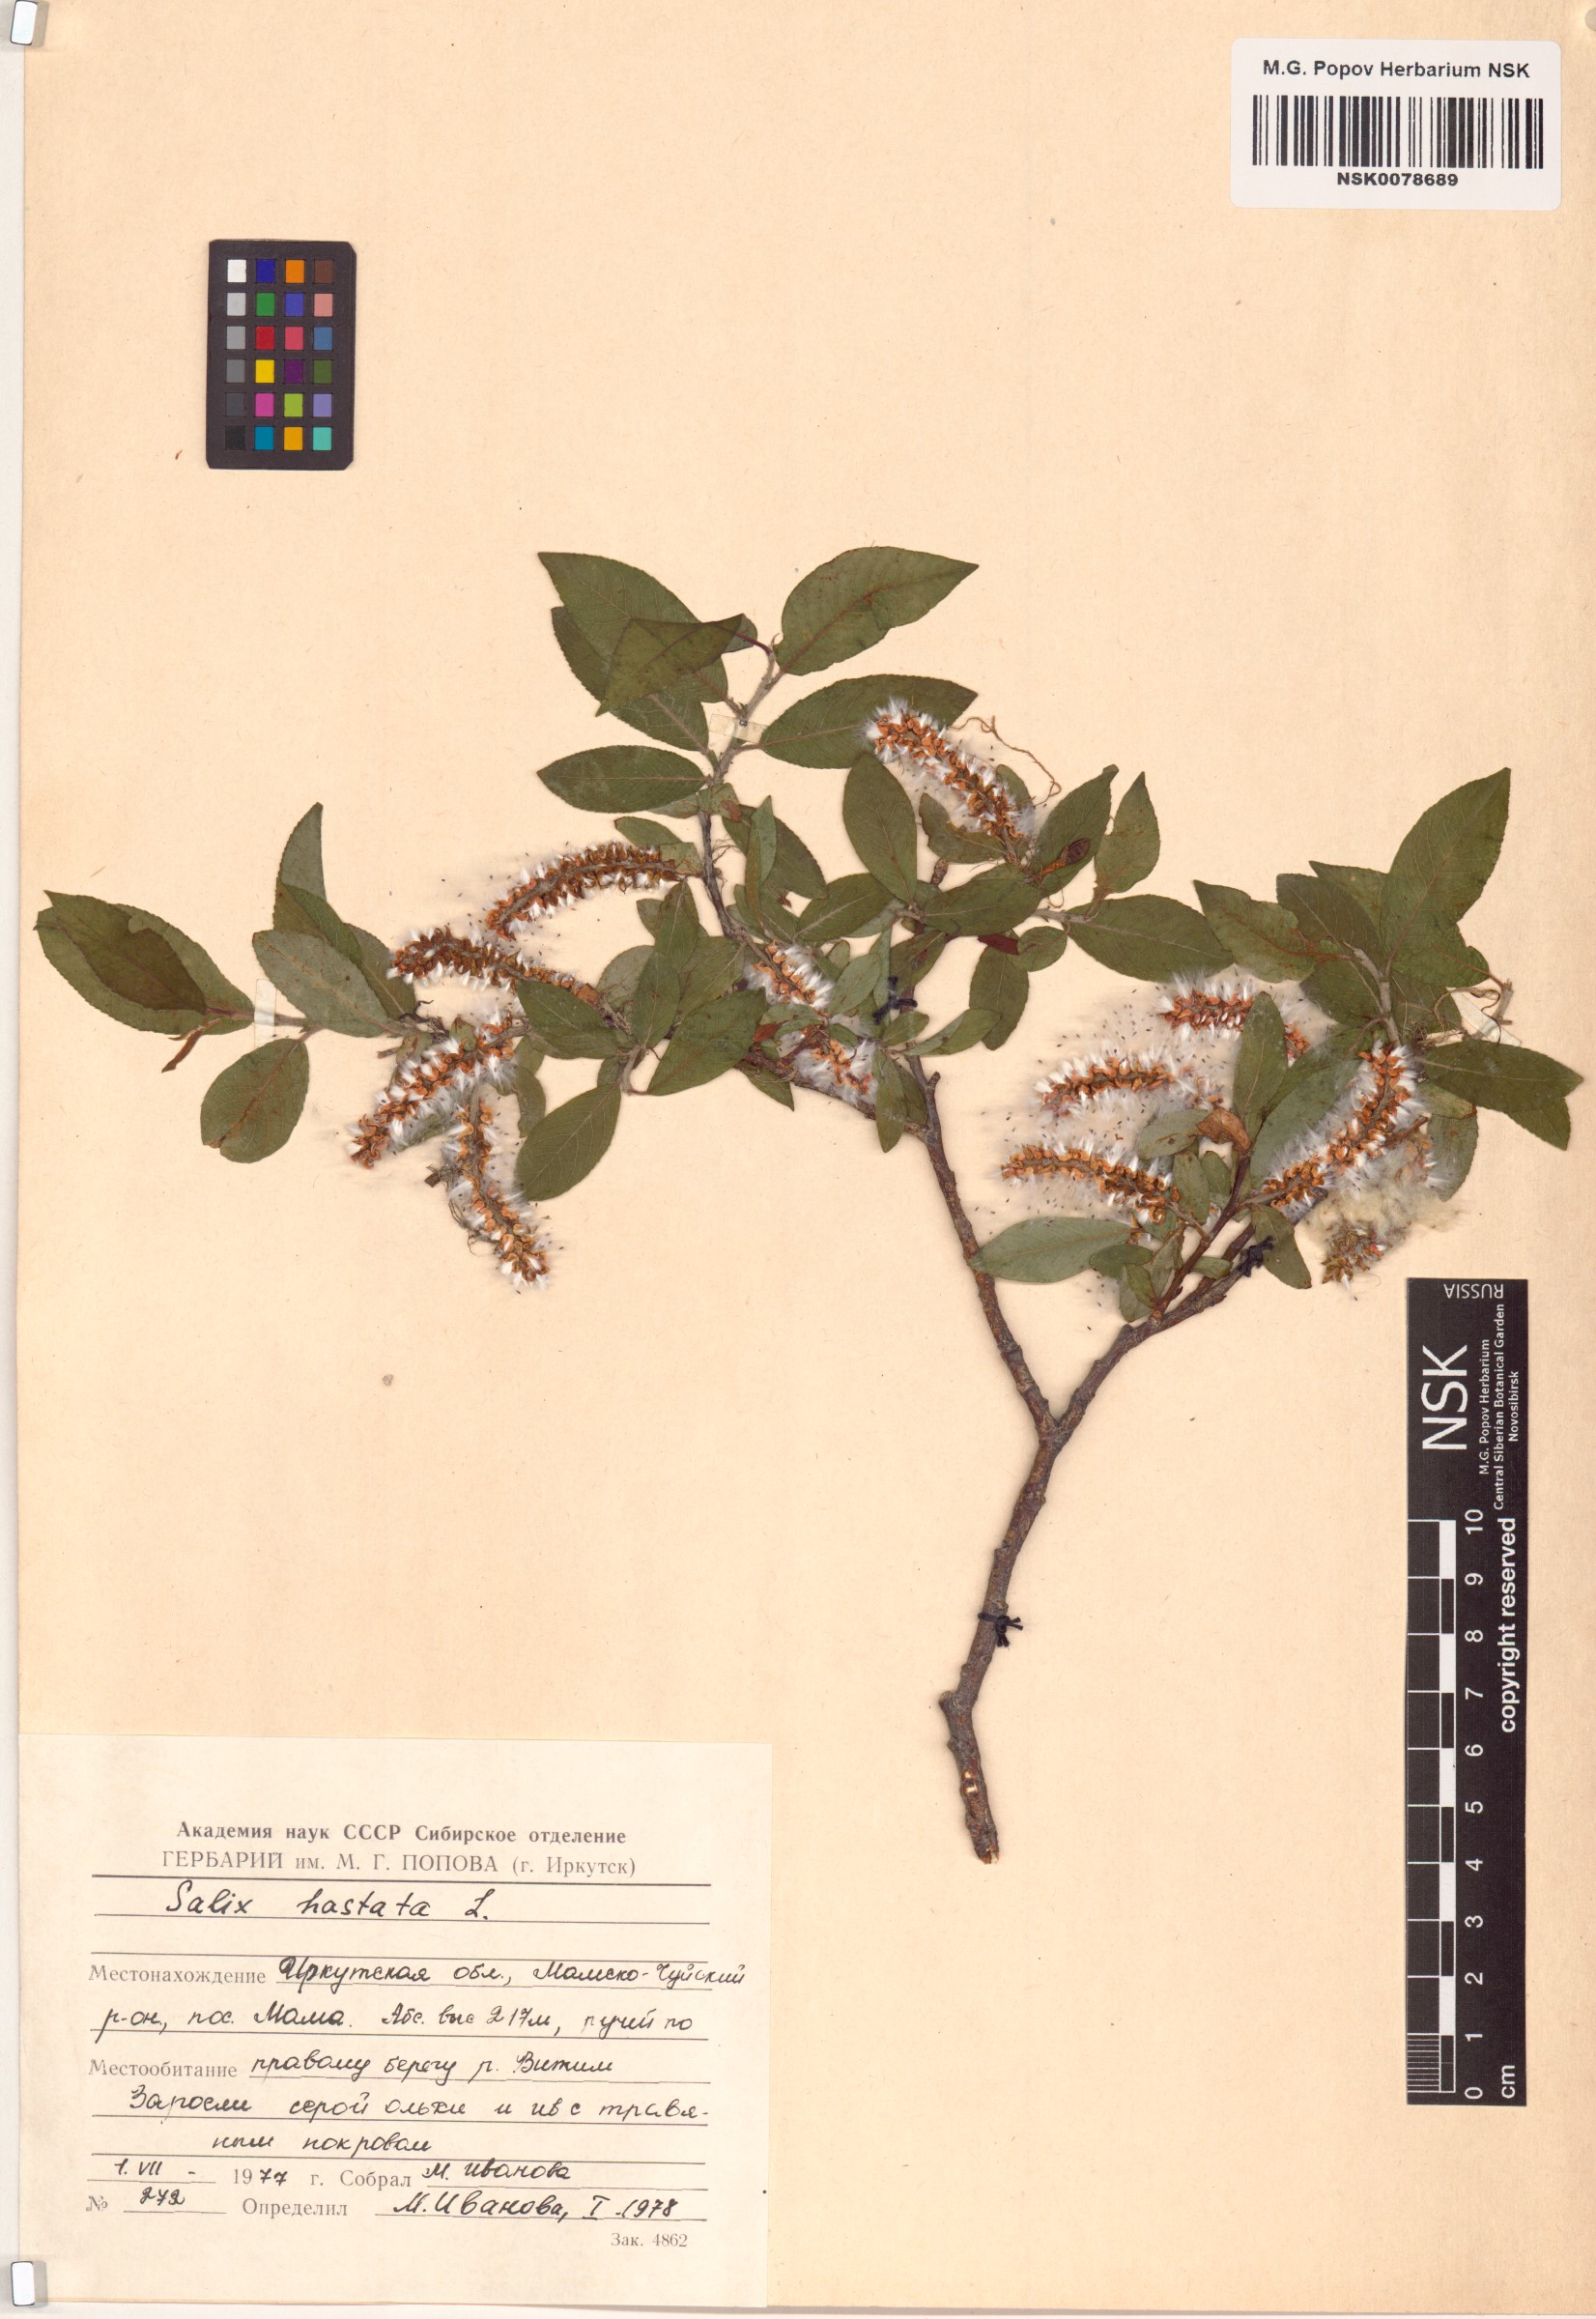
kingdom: Plantae
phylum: Tracheophyta
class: Magnoliopsida
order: Malpighiales
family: Salicaceae
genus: Salix
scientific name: Salix hastata
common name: Halberd willow
